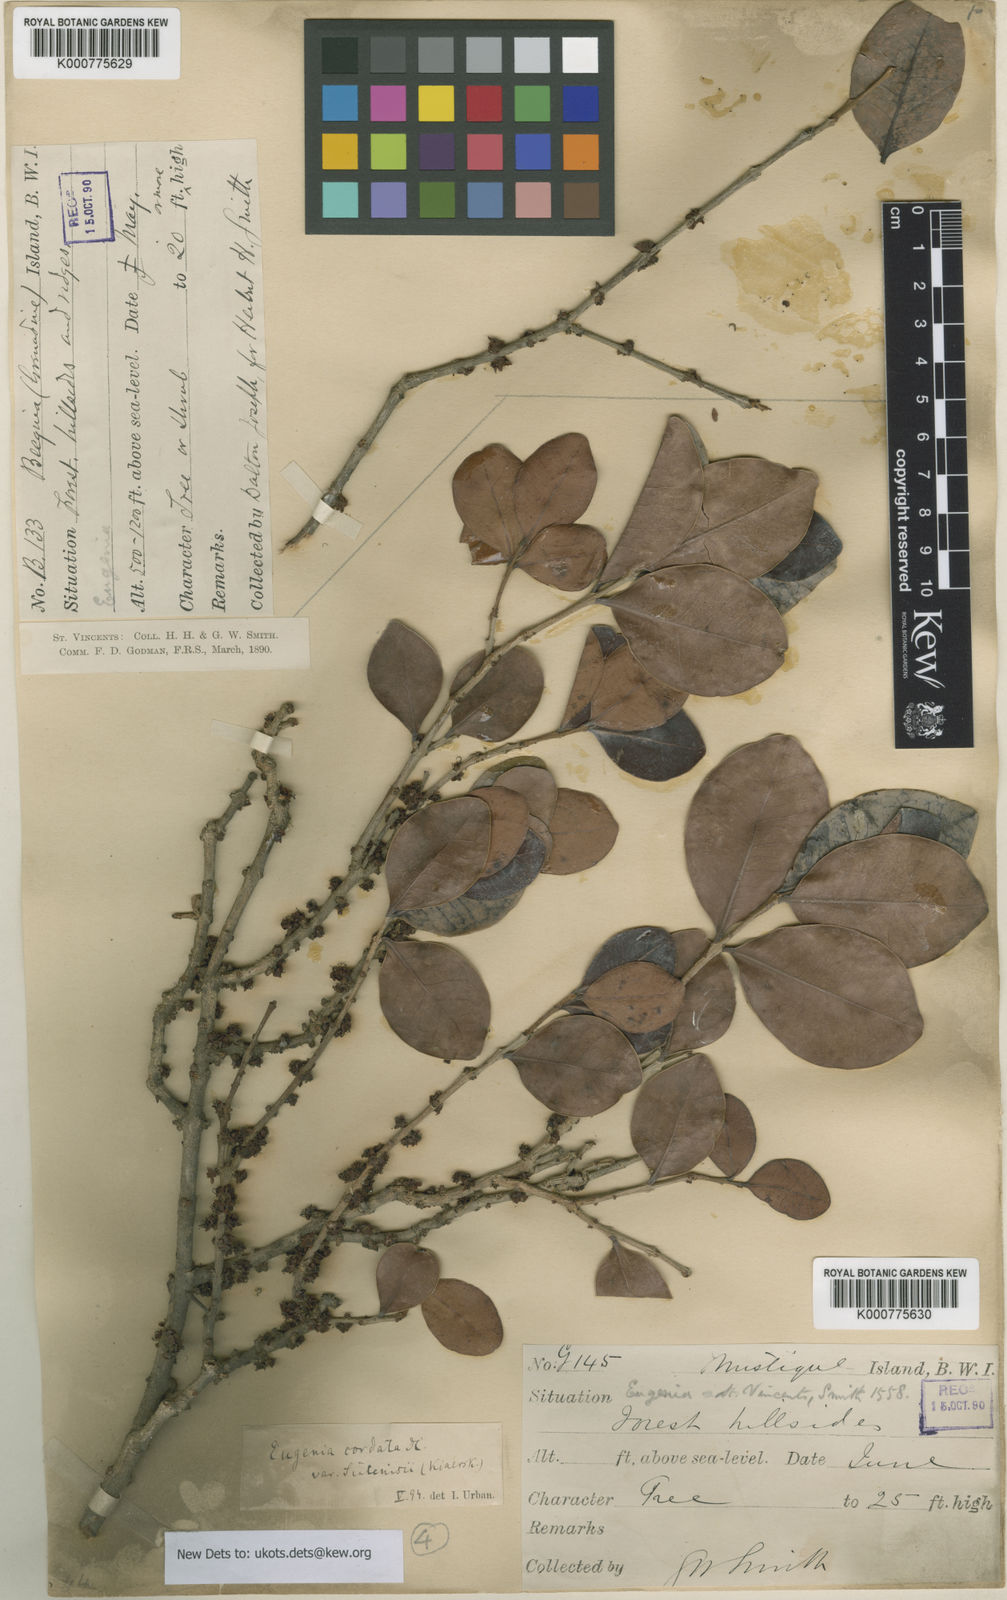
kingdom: Plantae
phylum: Tracheophyta
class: Magnoliopsida
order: Myrtales
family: Myrtaceae
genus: Eugenia
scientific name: Eugenia cordata
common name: Lathberry
